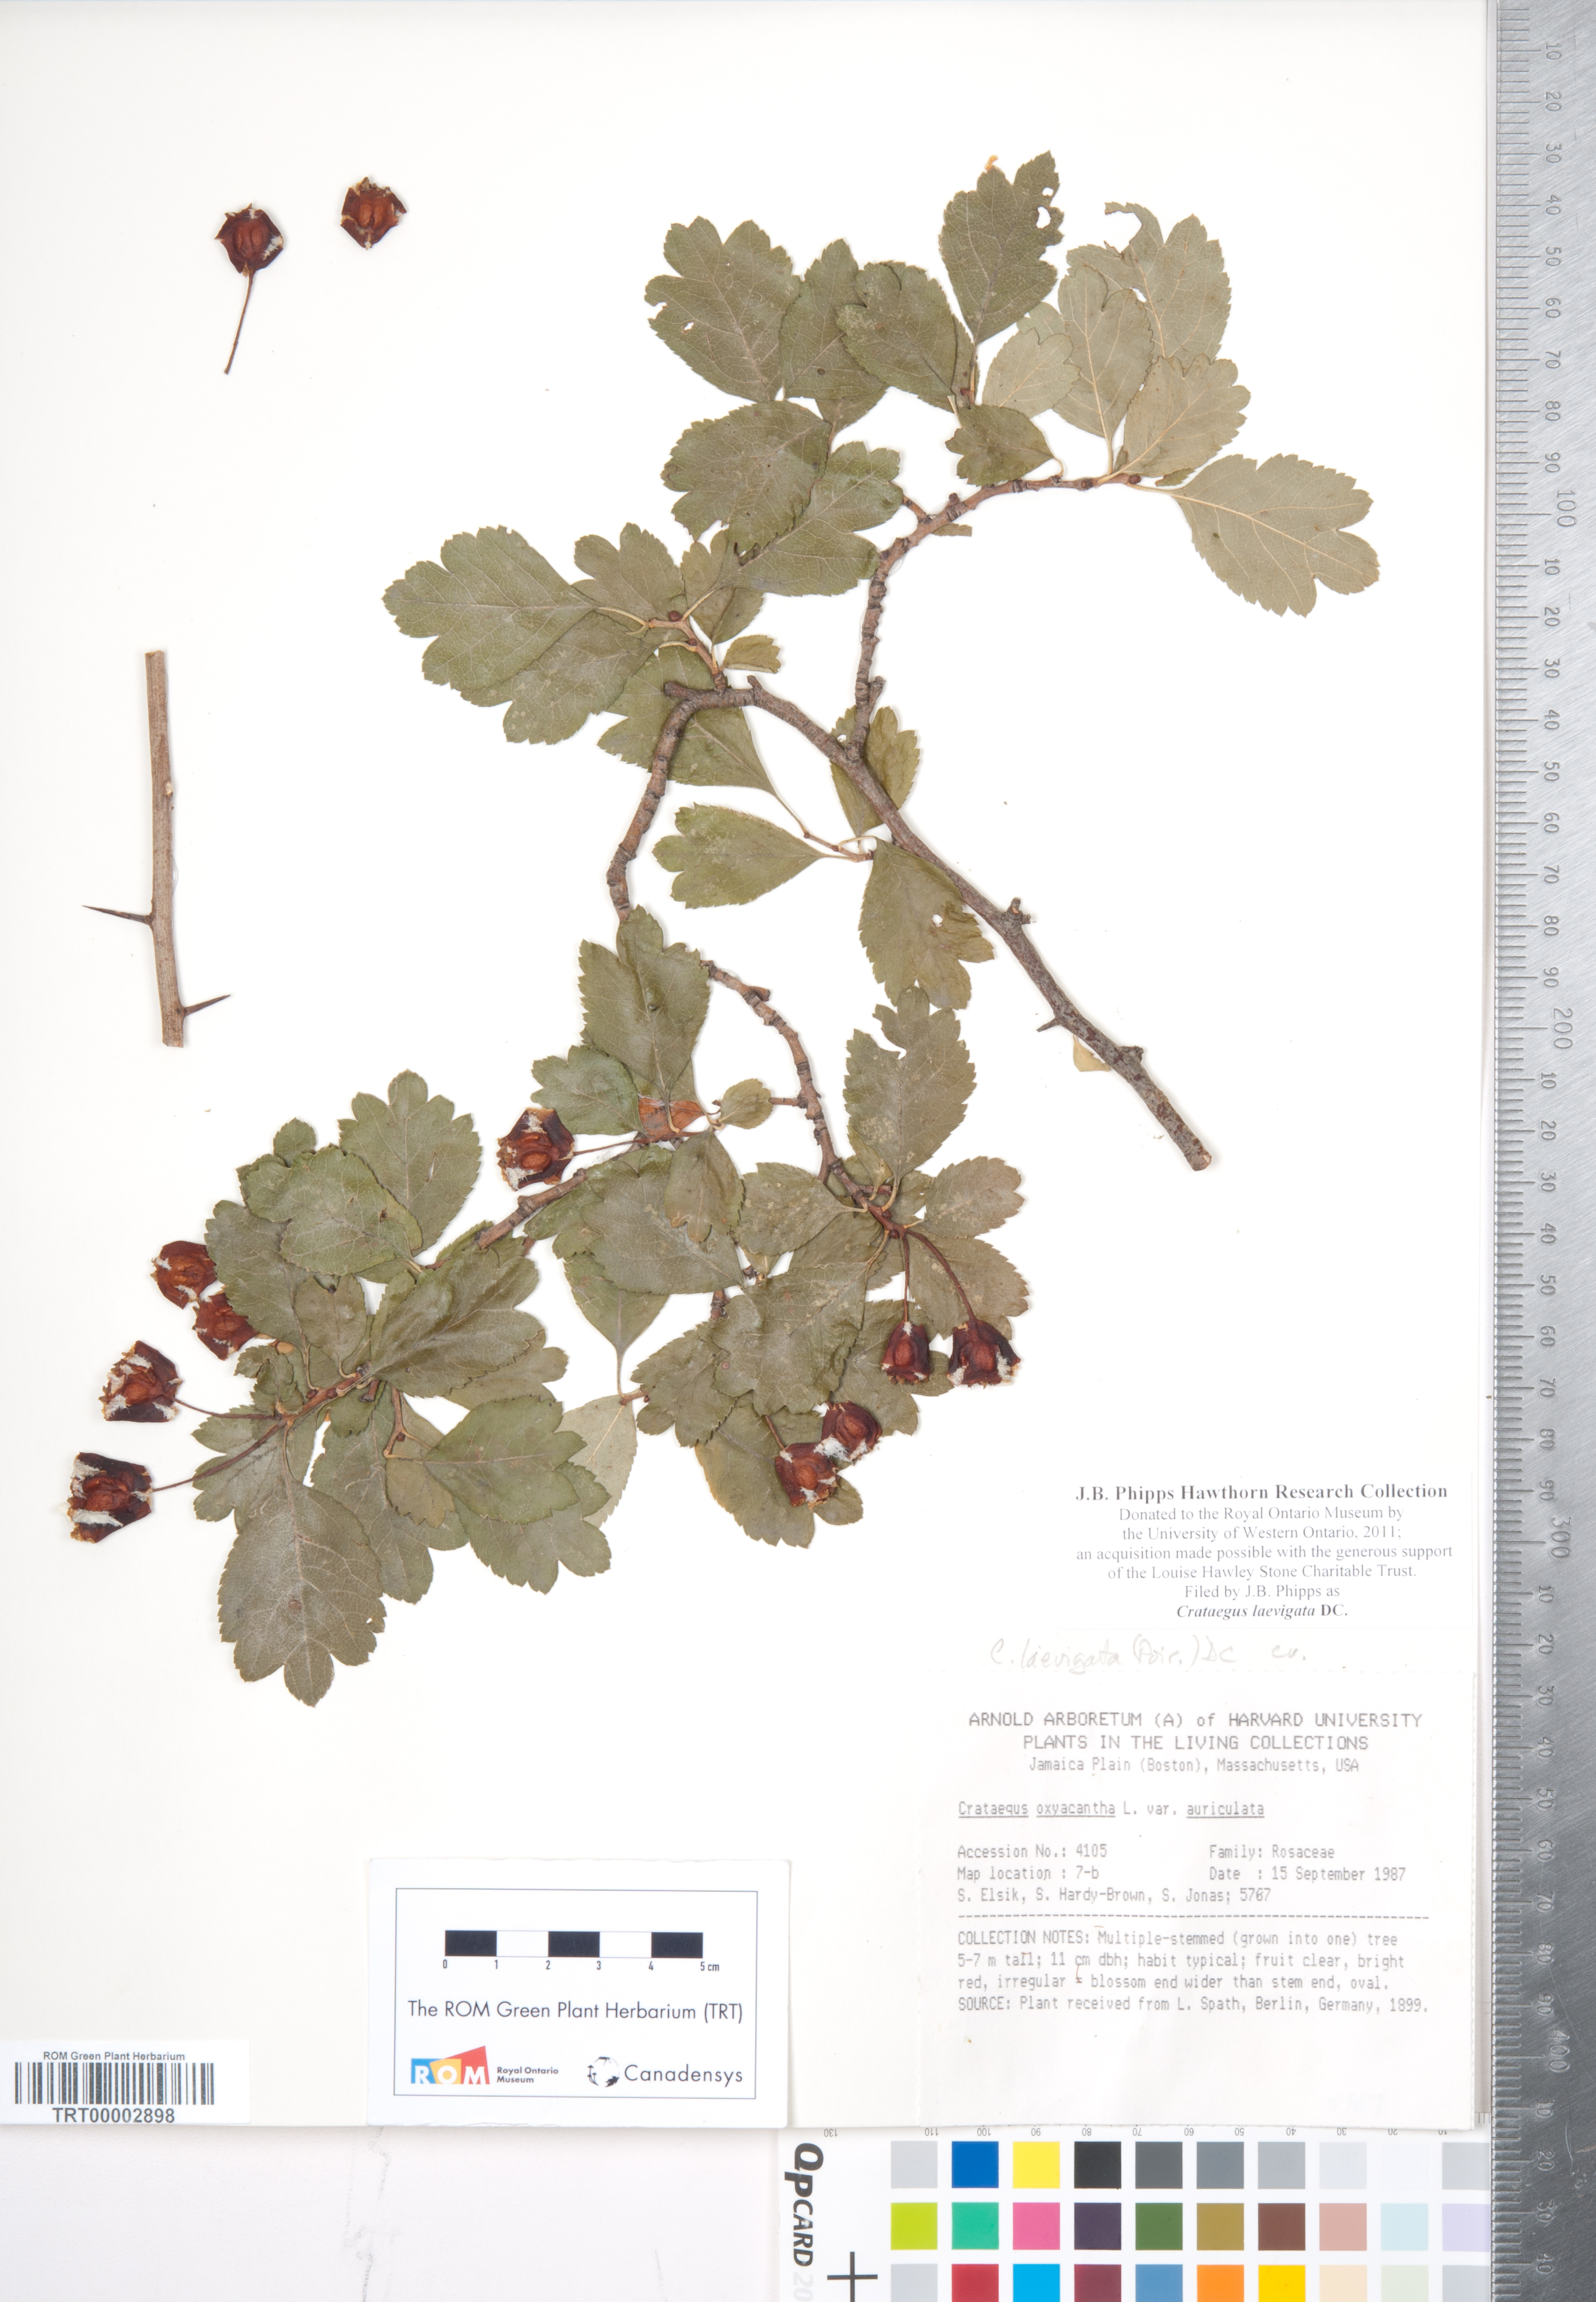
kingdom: Plantae
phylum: Tracheophyta
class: Magnoliopsida
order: Rosales
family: Rosaceae
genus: Crataegus
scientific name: Crataegus laevigata
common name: Midland hawthorn
